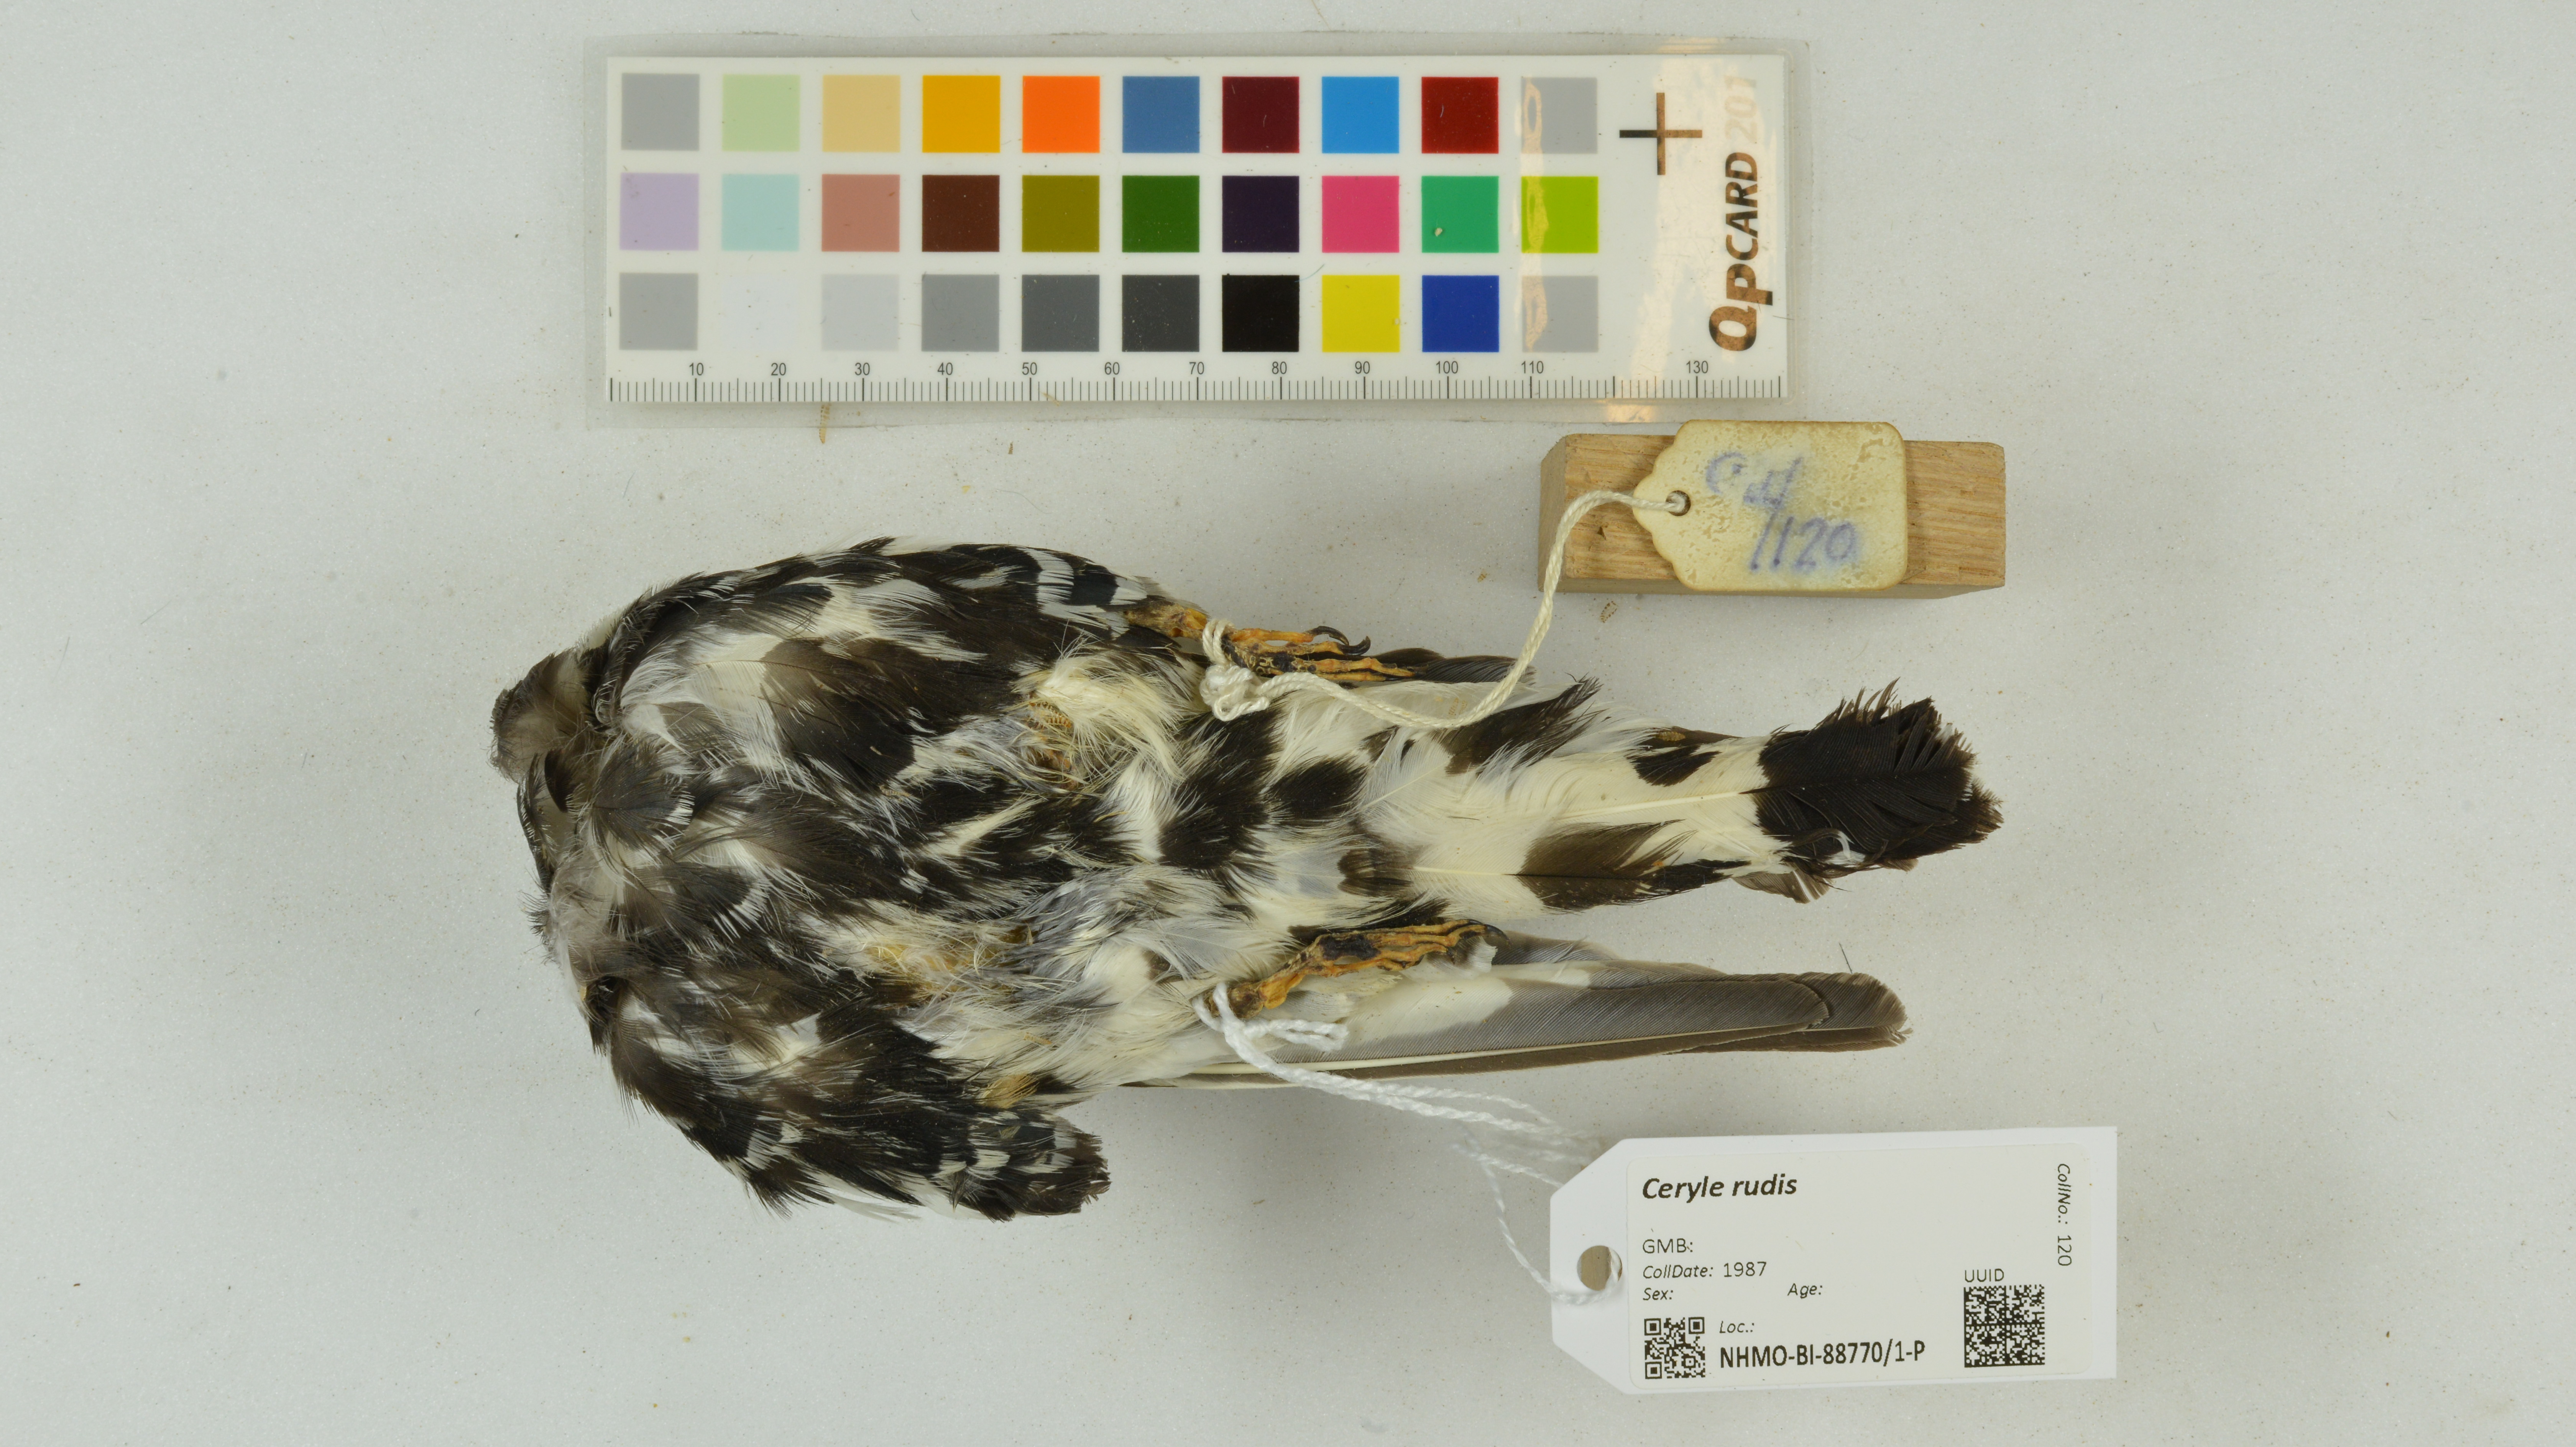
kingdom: Animalia
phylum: Chordata
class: Aves
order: Coraciiformes
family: Alcedinidae
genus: Ceryle
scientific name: Ceryle rudis
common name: Pied kingfisher
